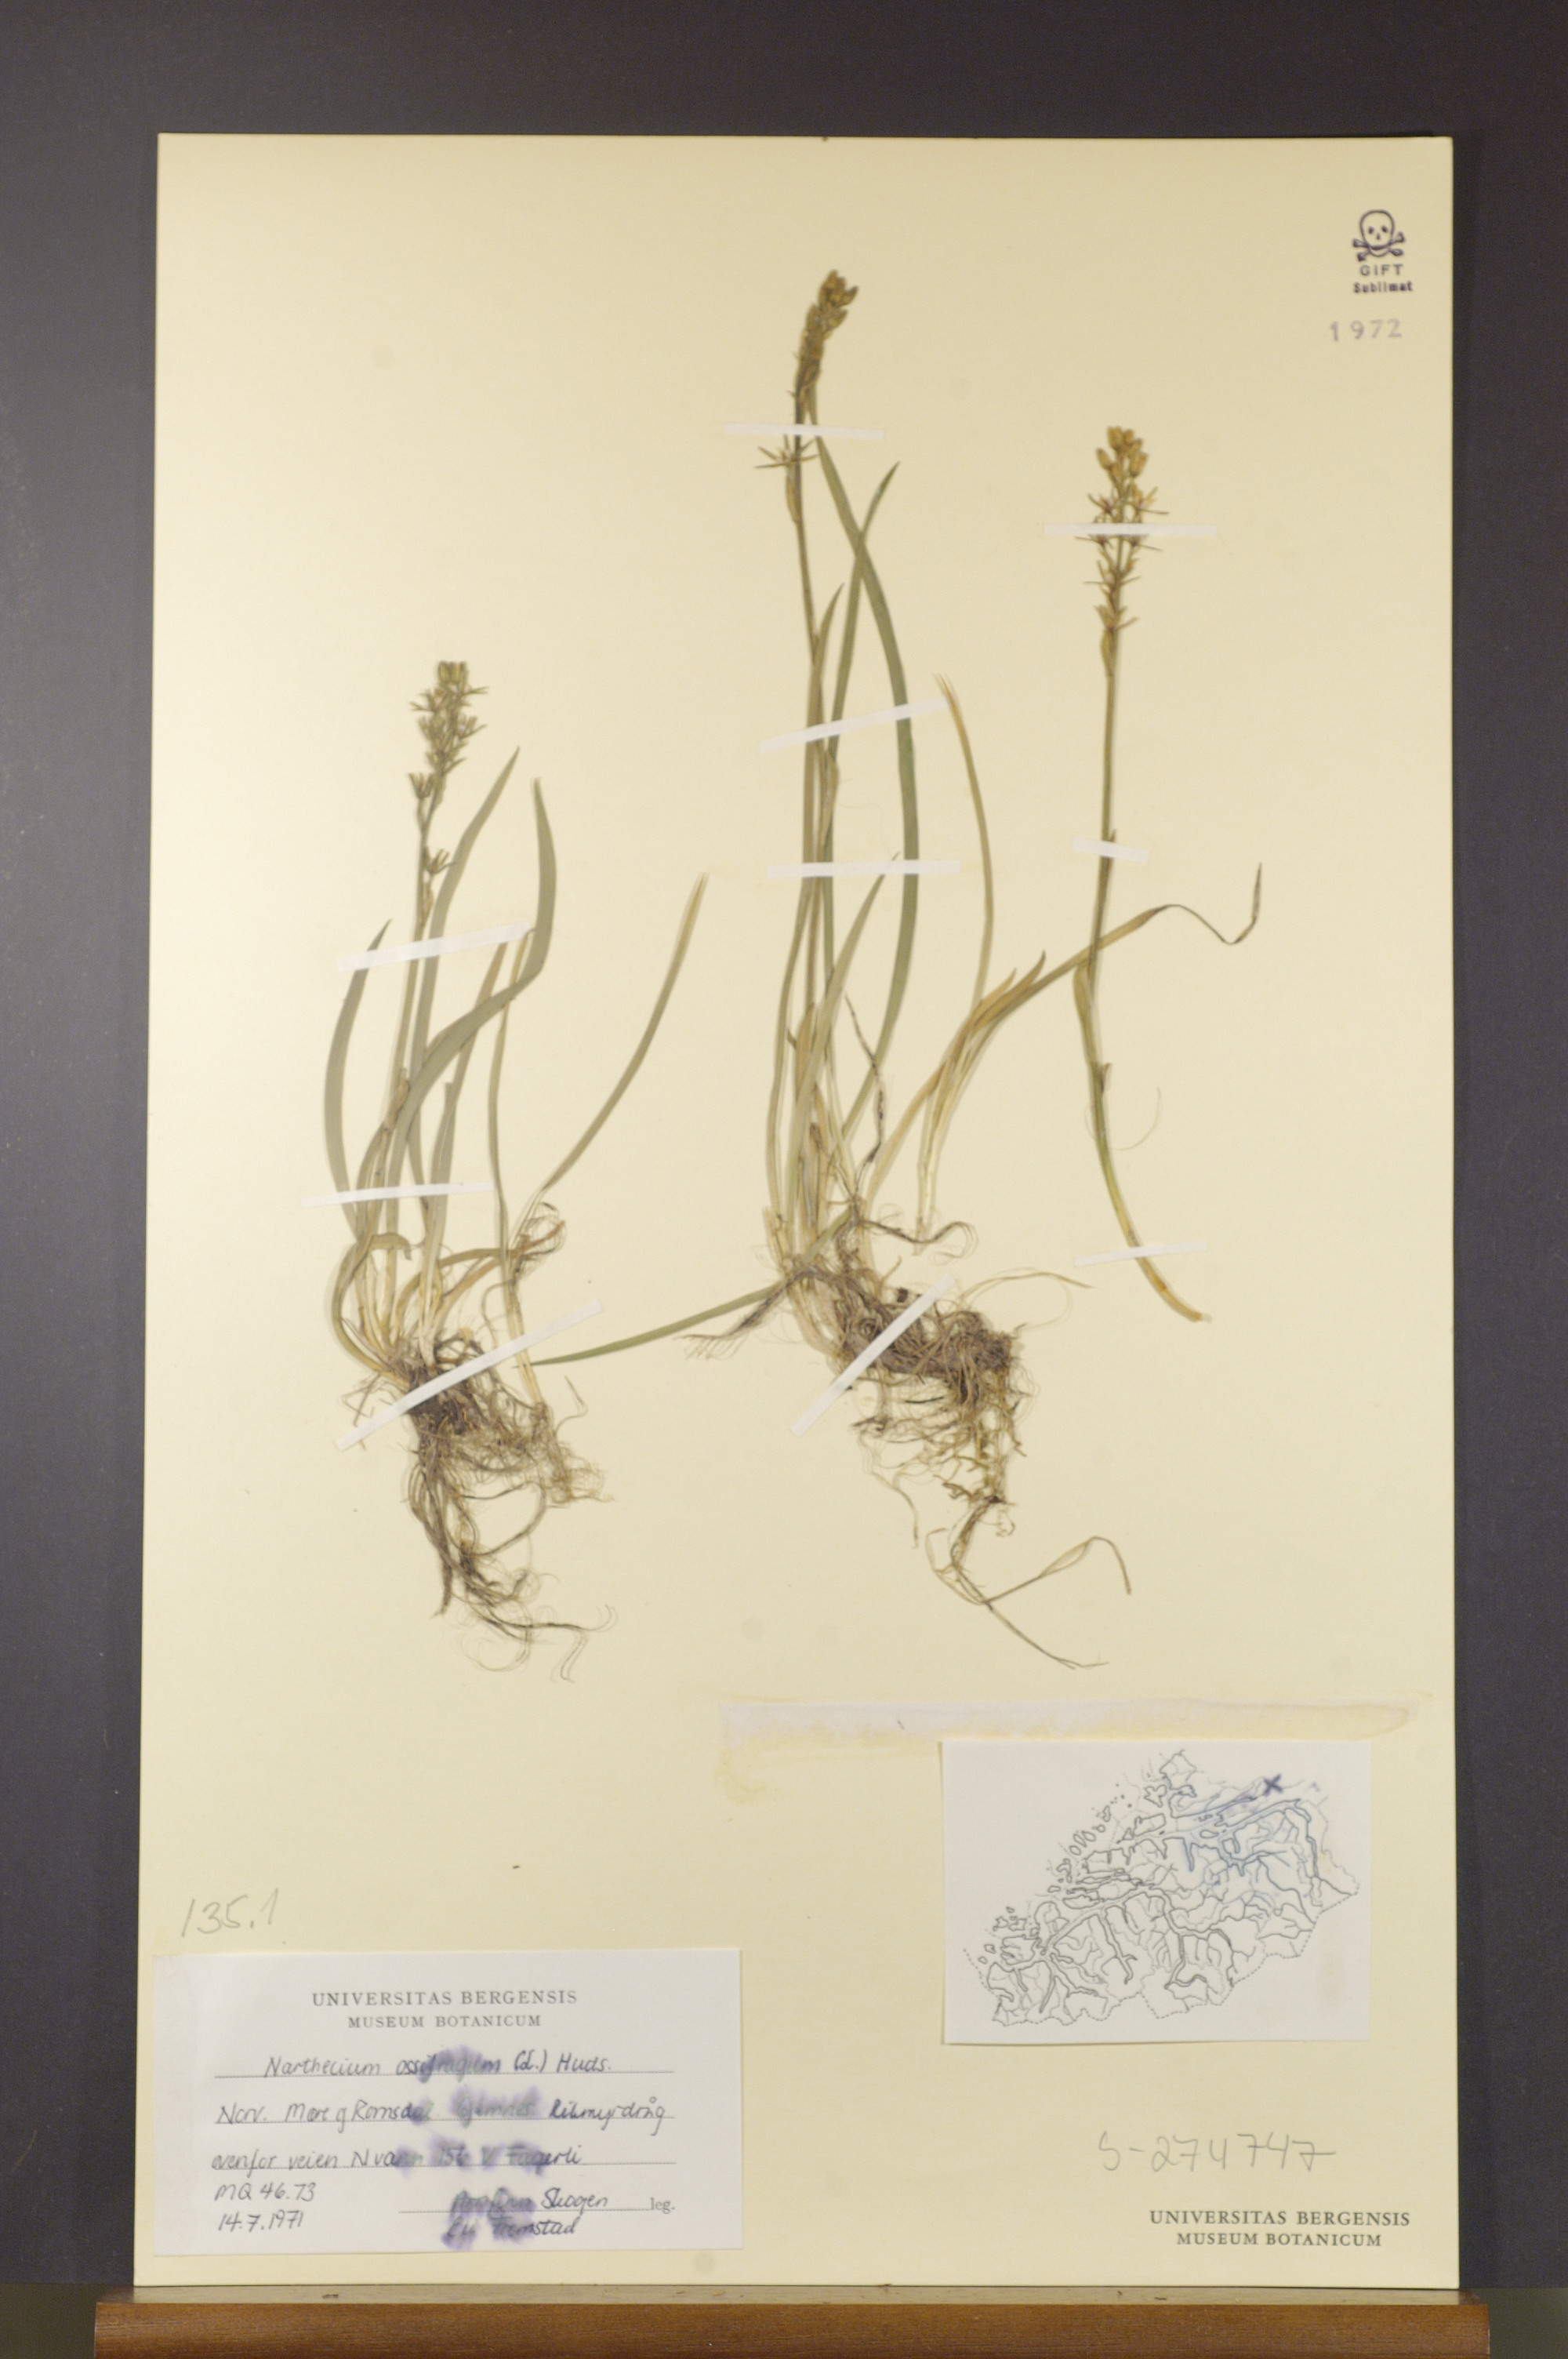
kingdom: Plantae
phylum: Tracheophyta
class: Liliopsida
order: Dioscoreales
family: Nartheciaceae
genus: Narthecium
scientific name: Narthecium ossifragum
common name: Bog asphodel
